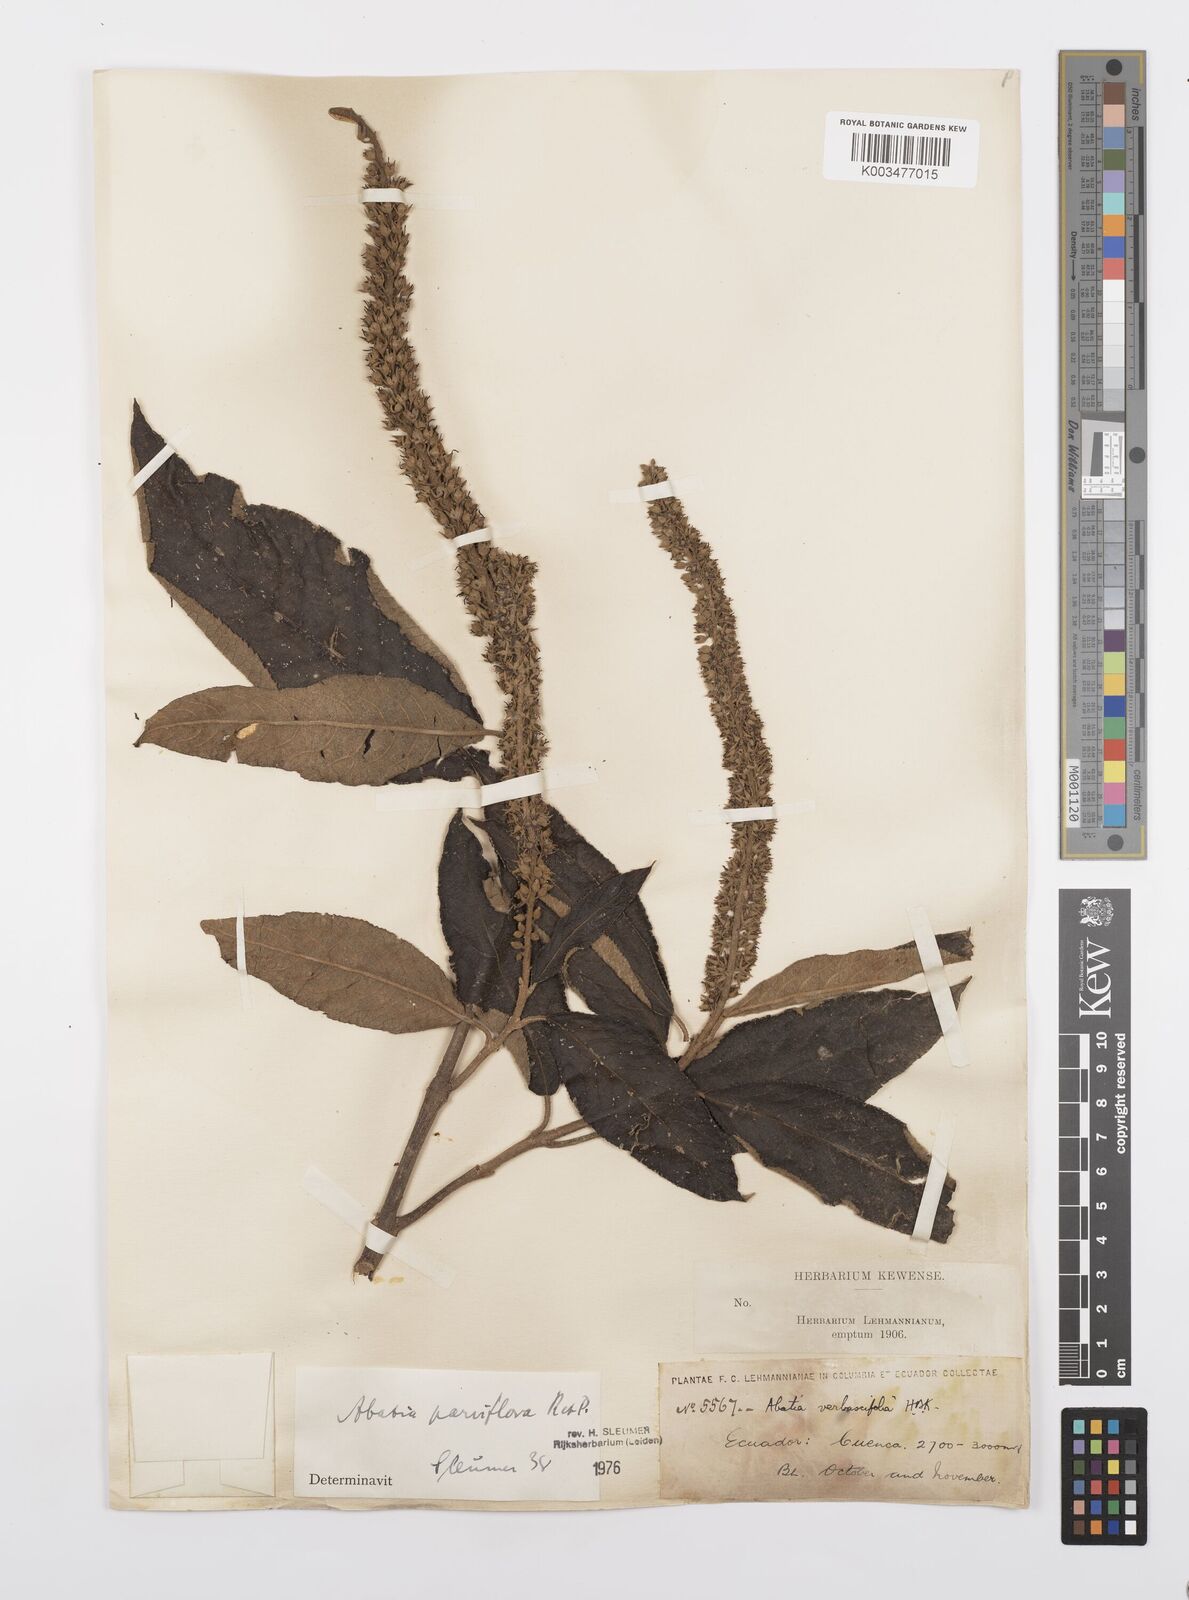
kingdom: Plantae
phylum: Tracheophyta
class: Magnoliopsida
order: Malpighiales
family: Salicaceae
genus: Abatia
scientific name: Abatia parviflora
